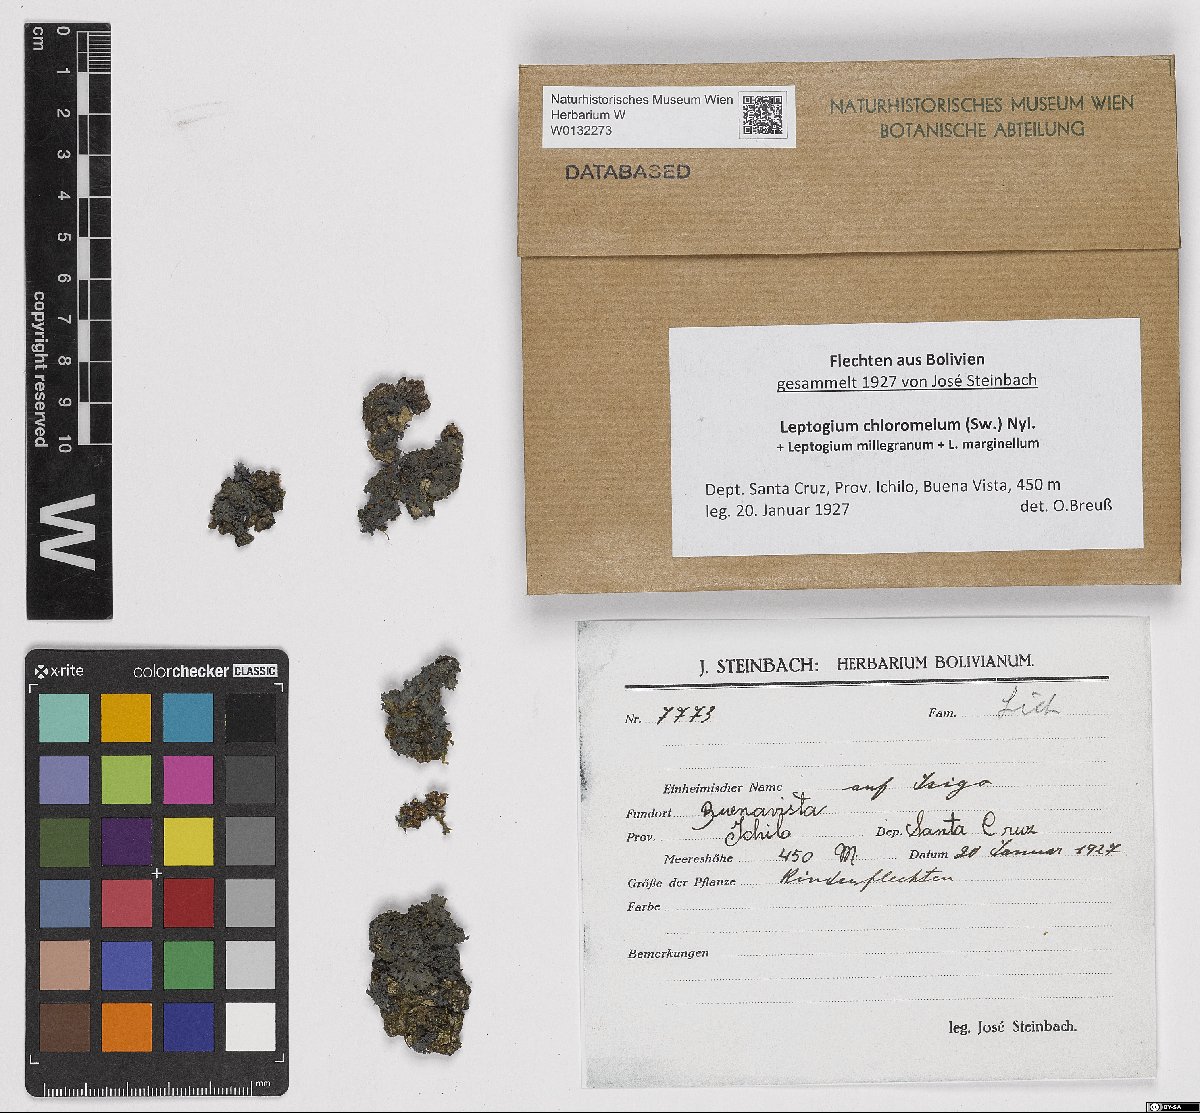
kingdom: Fungi
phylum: Ascomycota
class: Lecanoromycetes
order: Peltigerales
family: Collemataceae
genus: Leptogium
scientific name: Leptogium chloromelum
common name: Ruffled jellyskin
